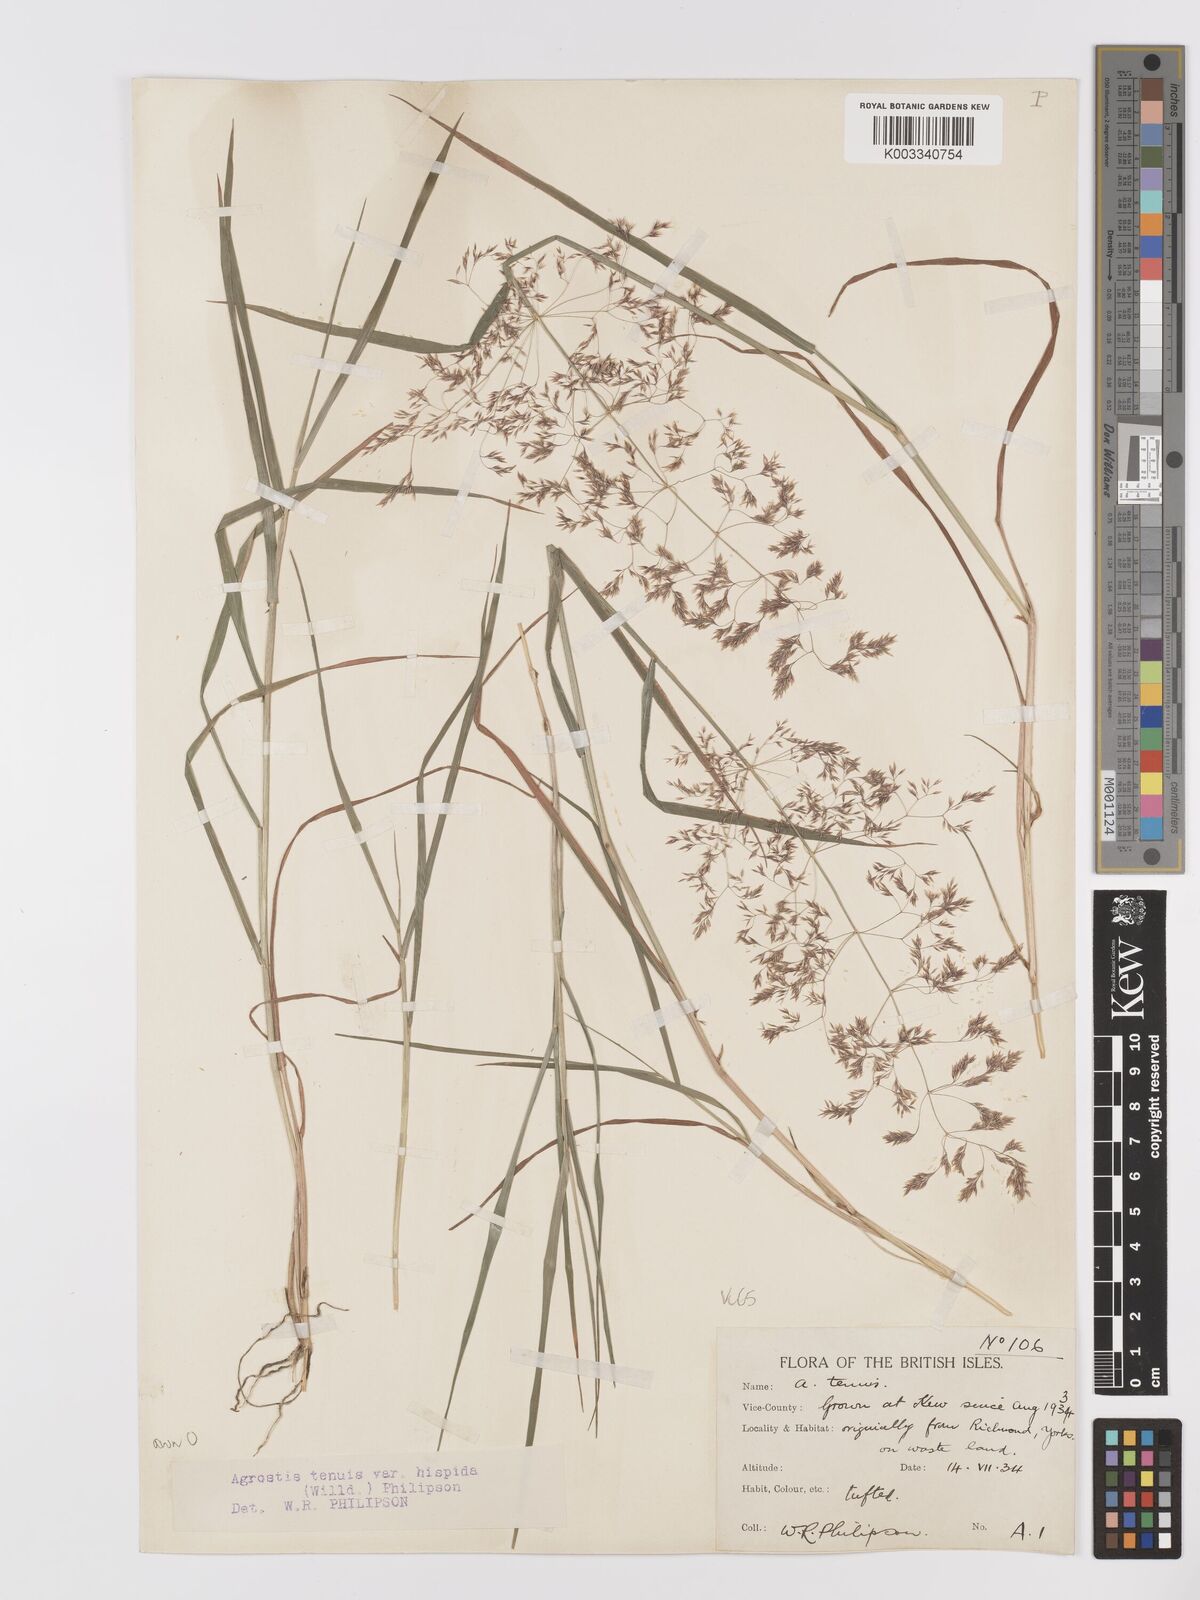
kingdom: Plantae
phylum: Tracheophyta
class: Liliopsida
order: Poales
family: Poaceae
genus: Agrostis
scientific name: Agrostis capillaris
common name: Colonial bentgrass
